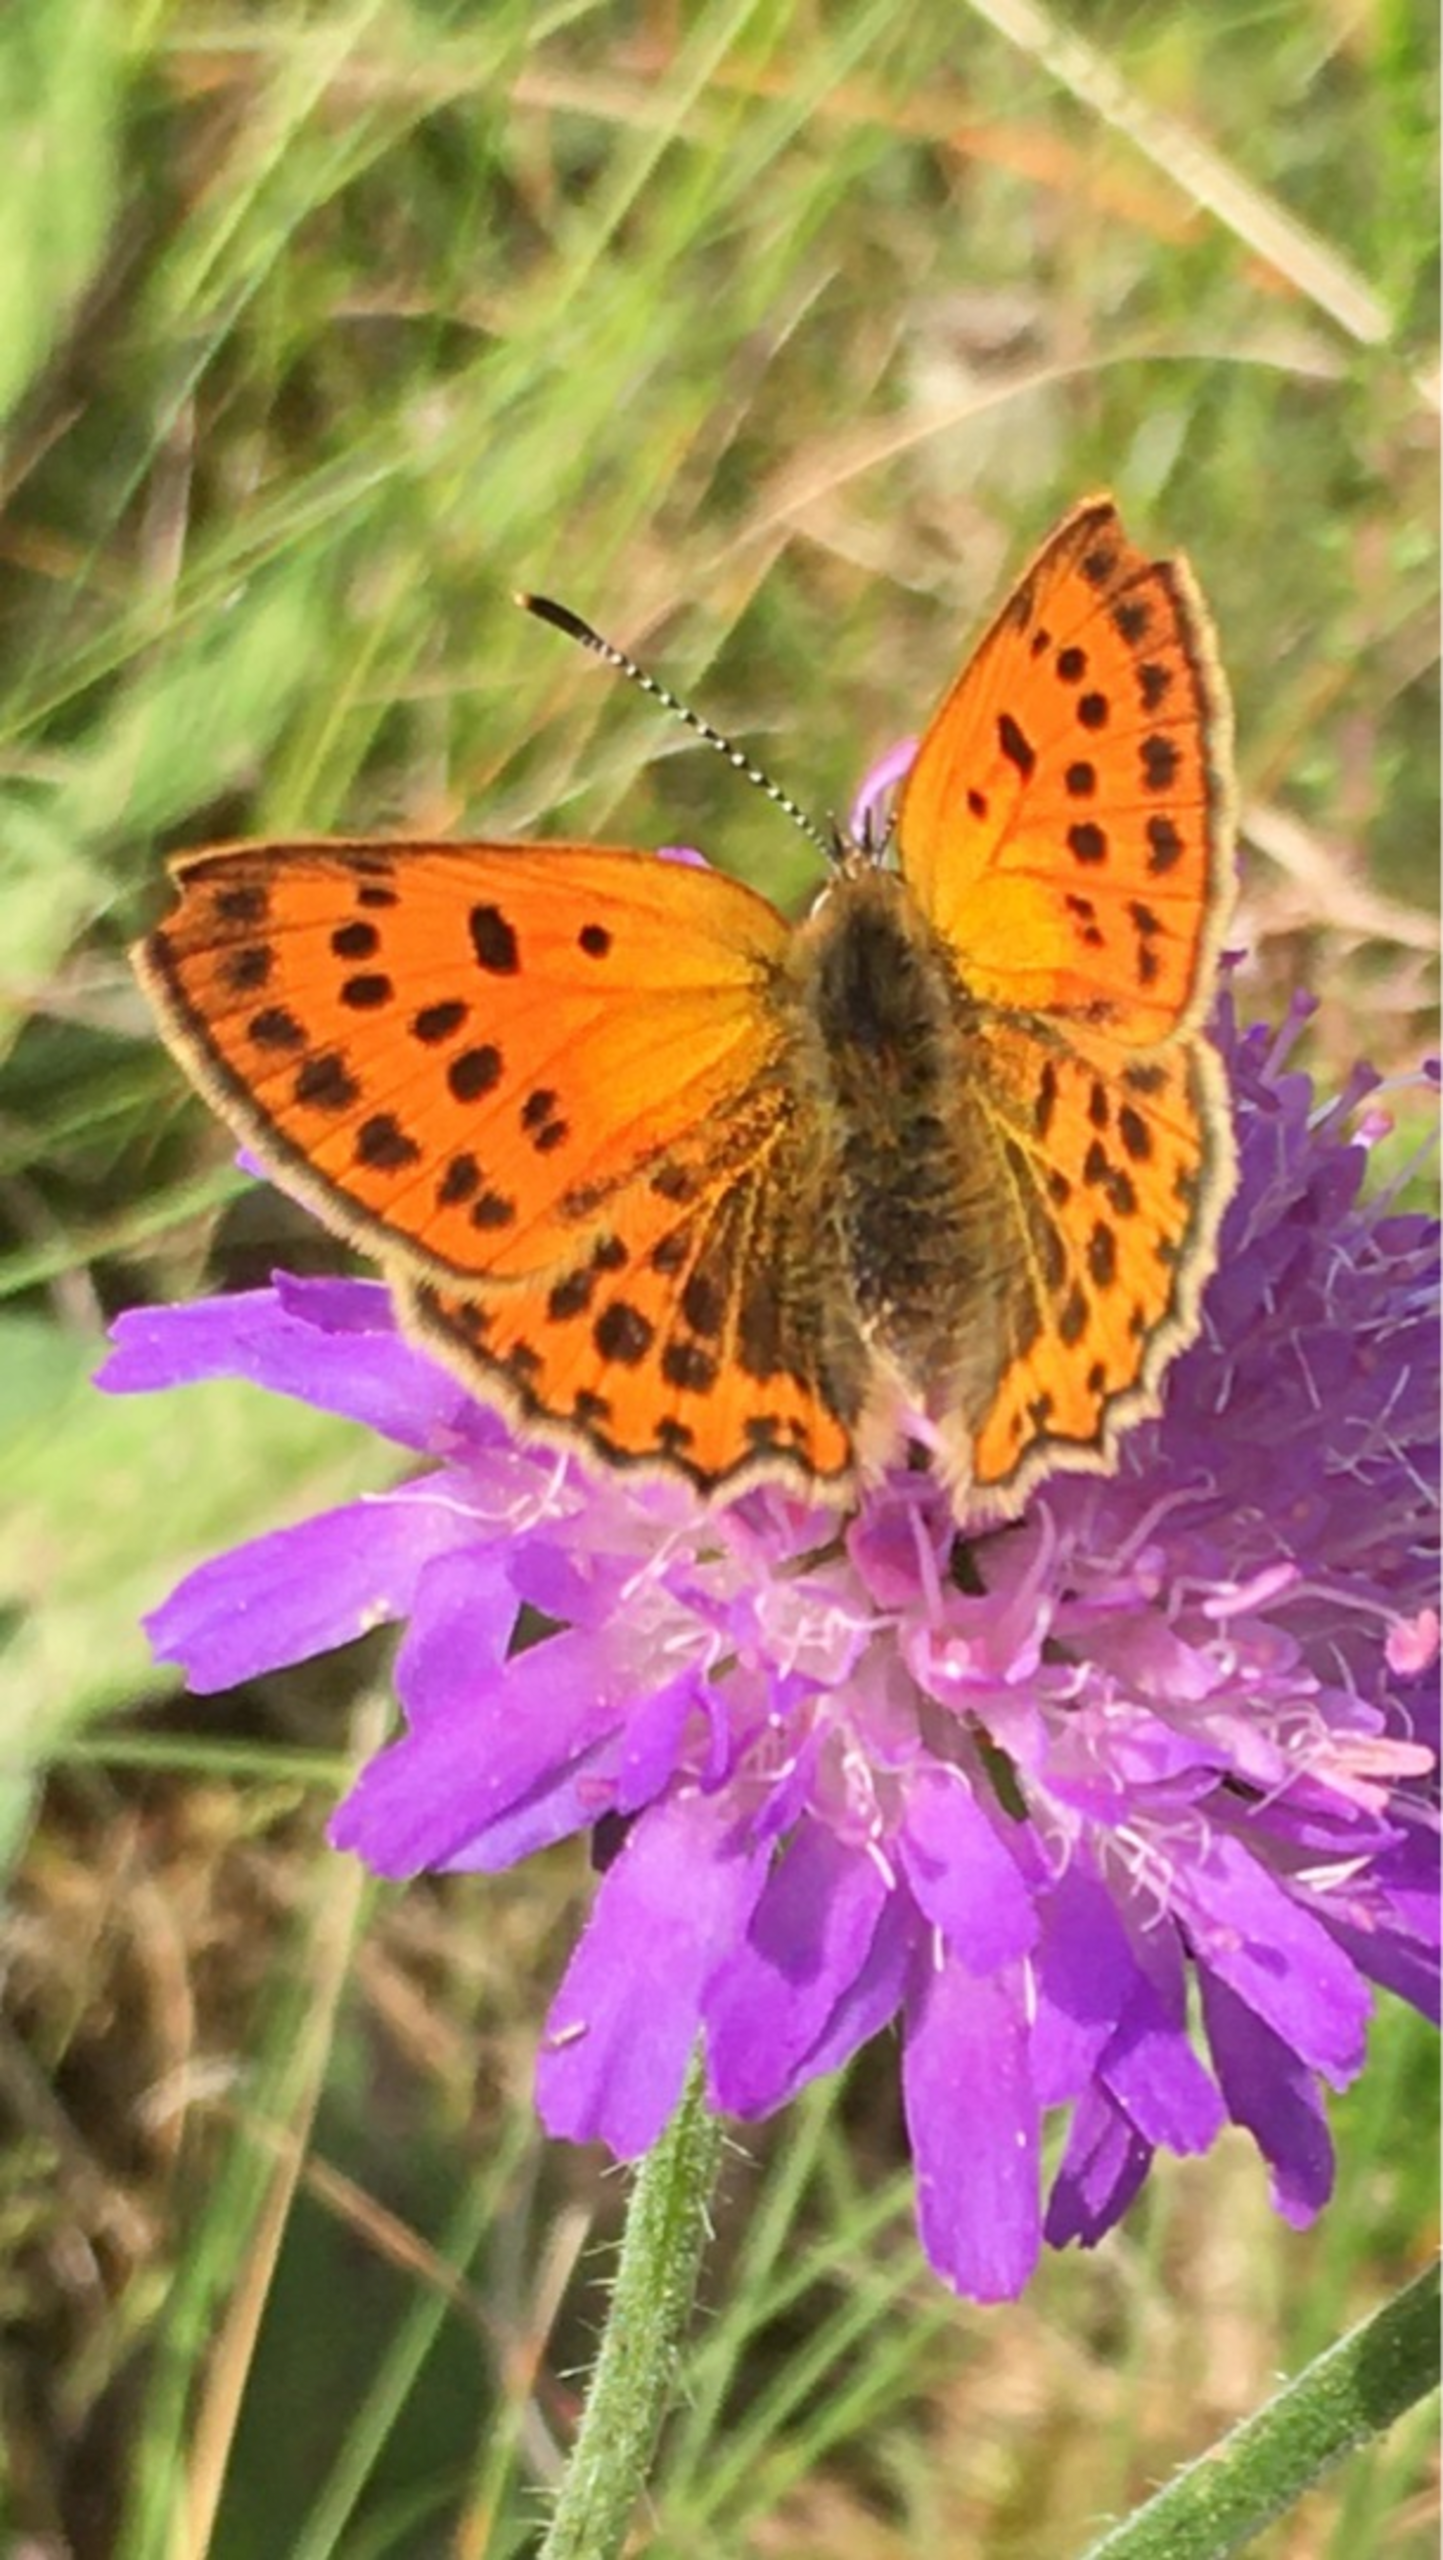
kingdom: Animalia
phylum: Arthropoda
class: Insecta
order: Lepidoptera
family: Lycaenidae
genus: Lycaena
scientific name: Lycaena virgaureae
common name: Dukatsommerfugl
